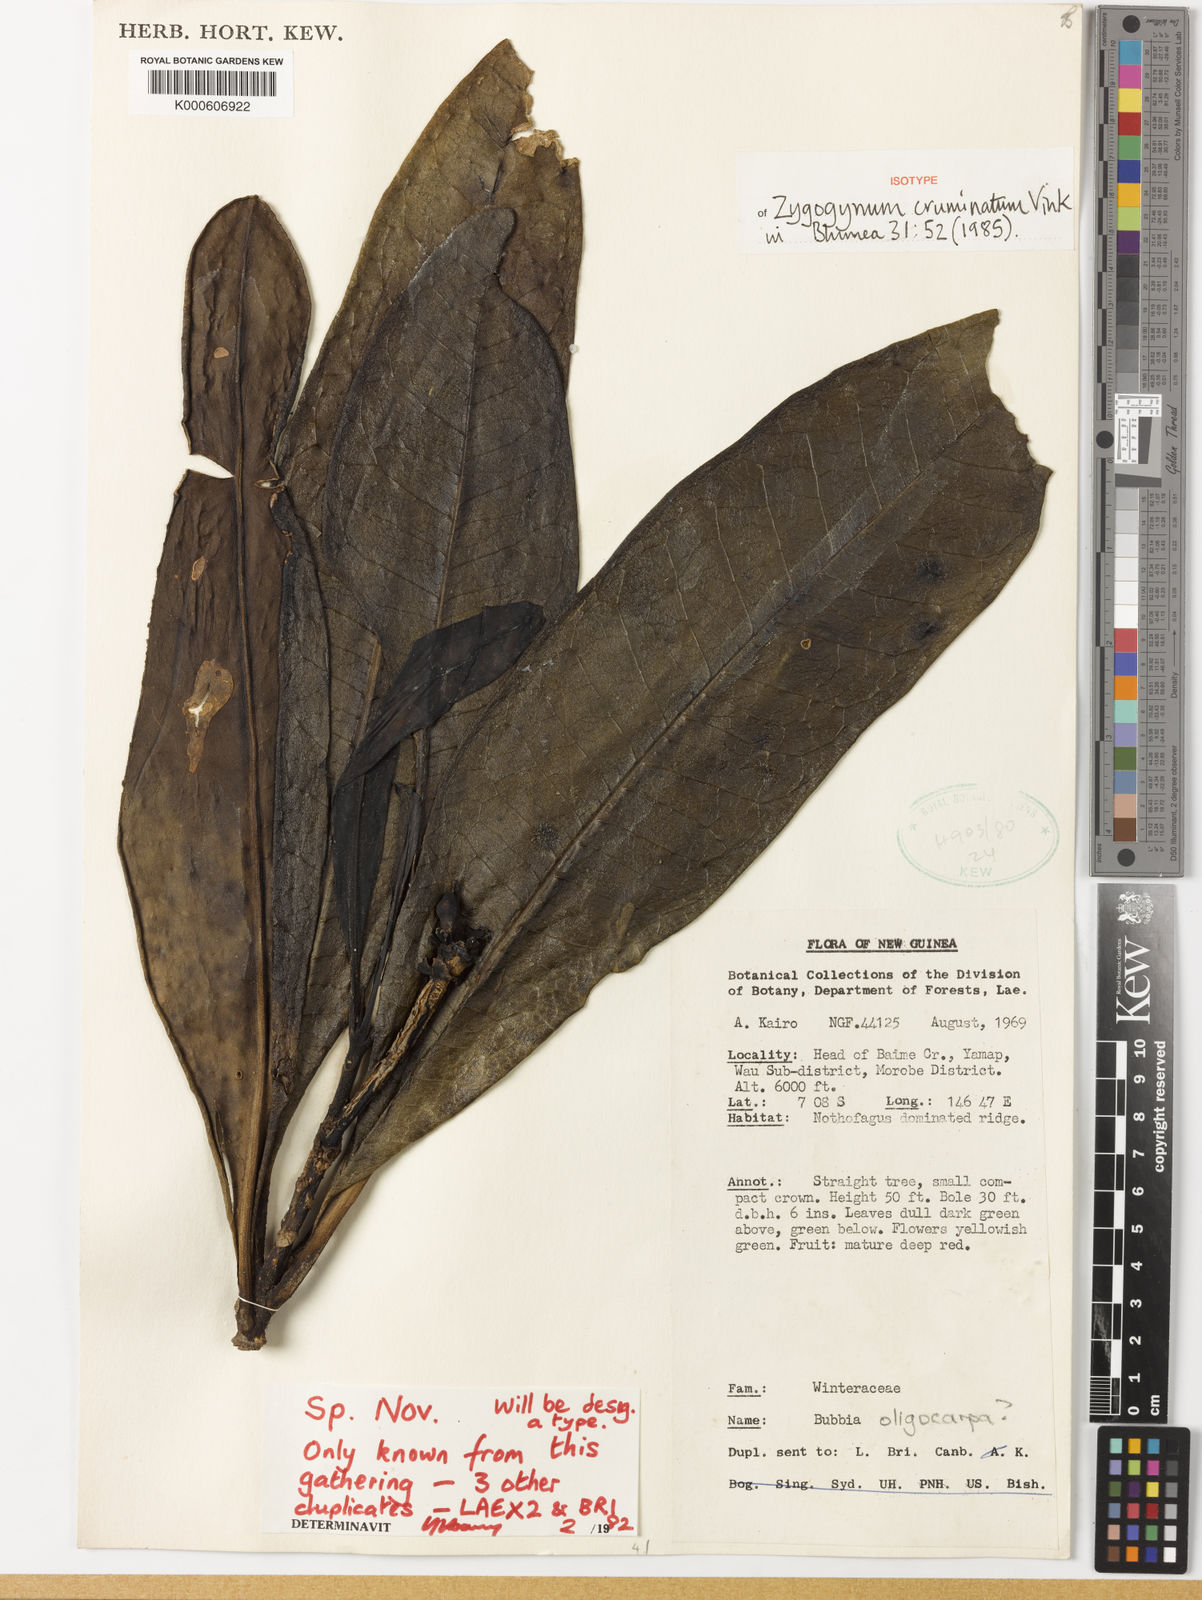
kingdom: Plantae
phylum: Tracheophyta
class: Magnoliopsida
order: Canellales
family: Winteraceae
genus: Zygogynum
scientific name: Zygogynum cruminatum
